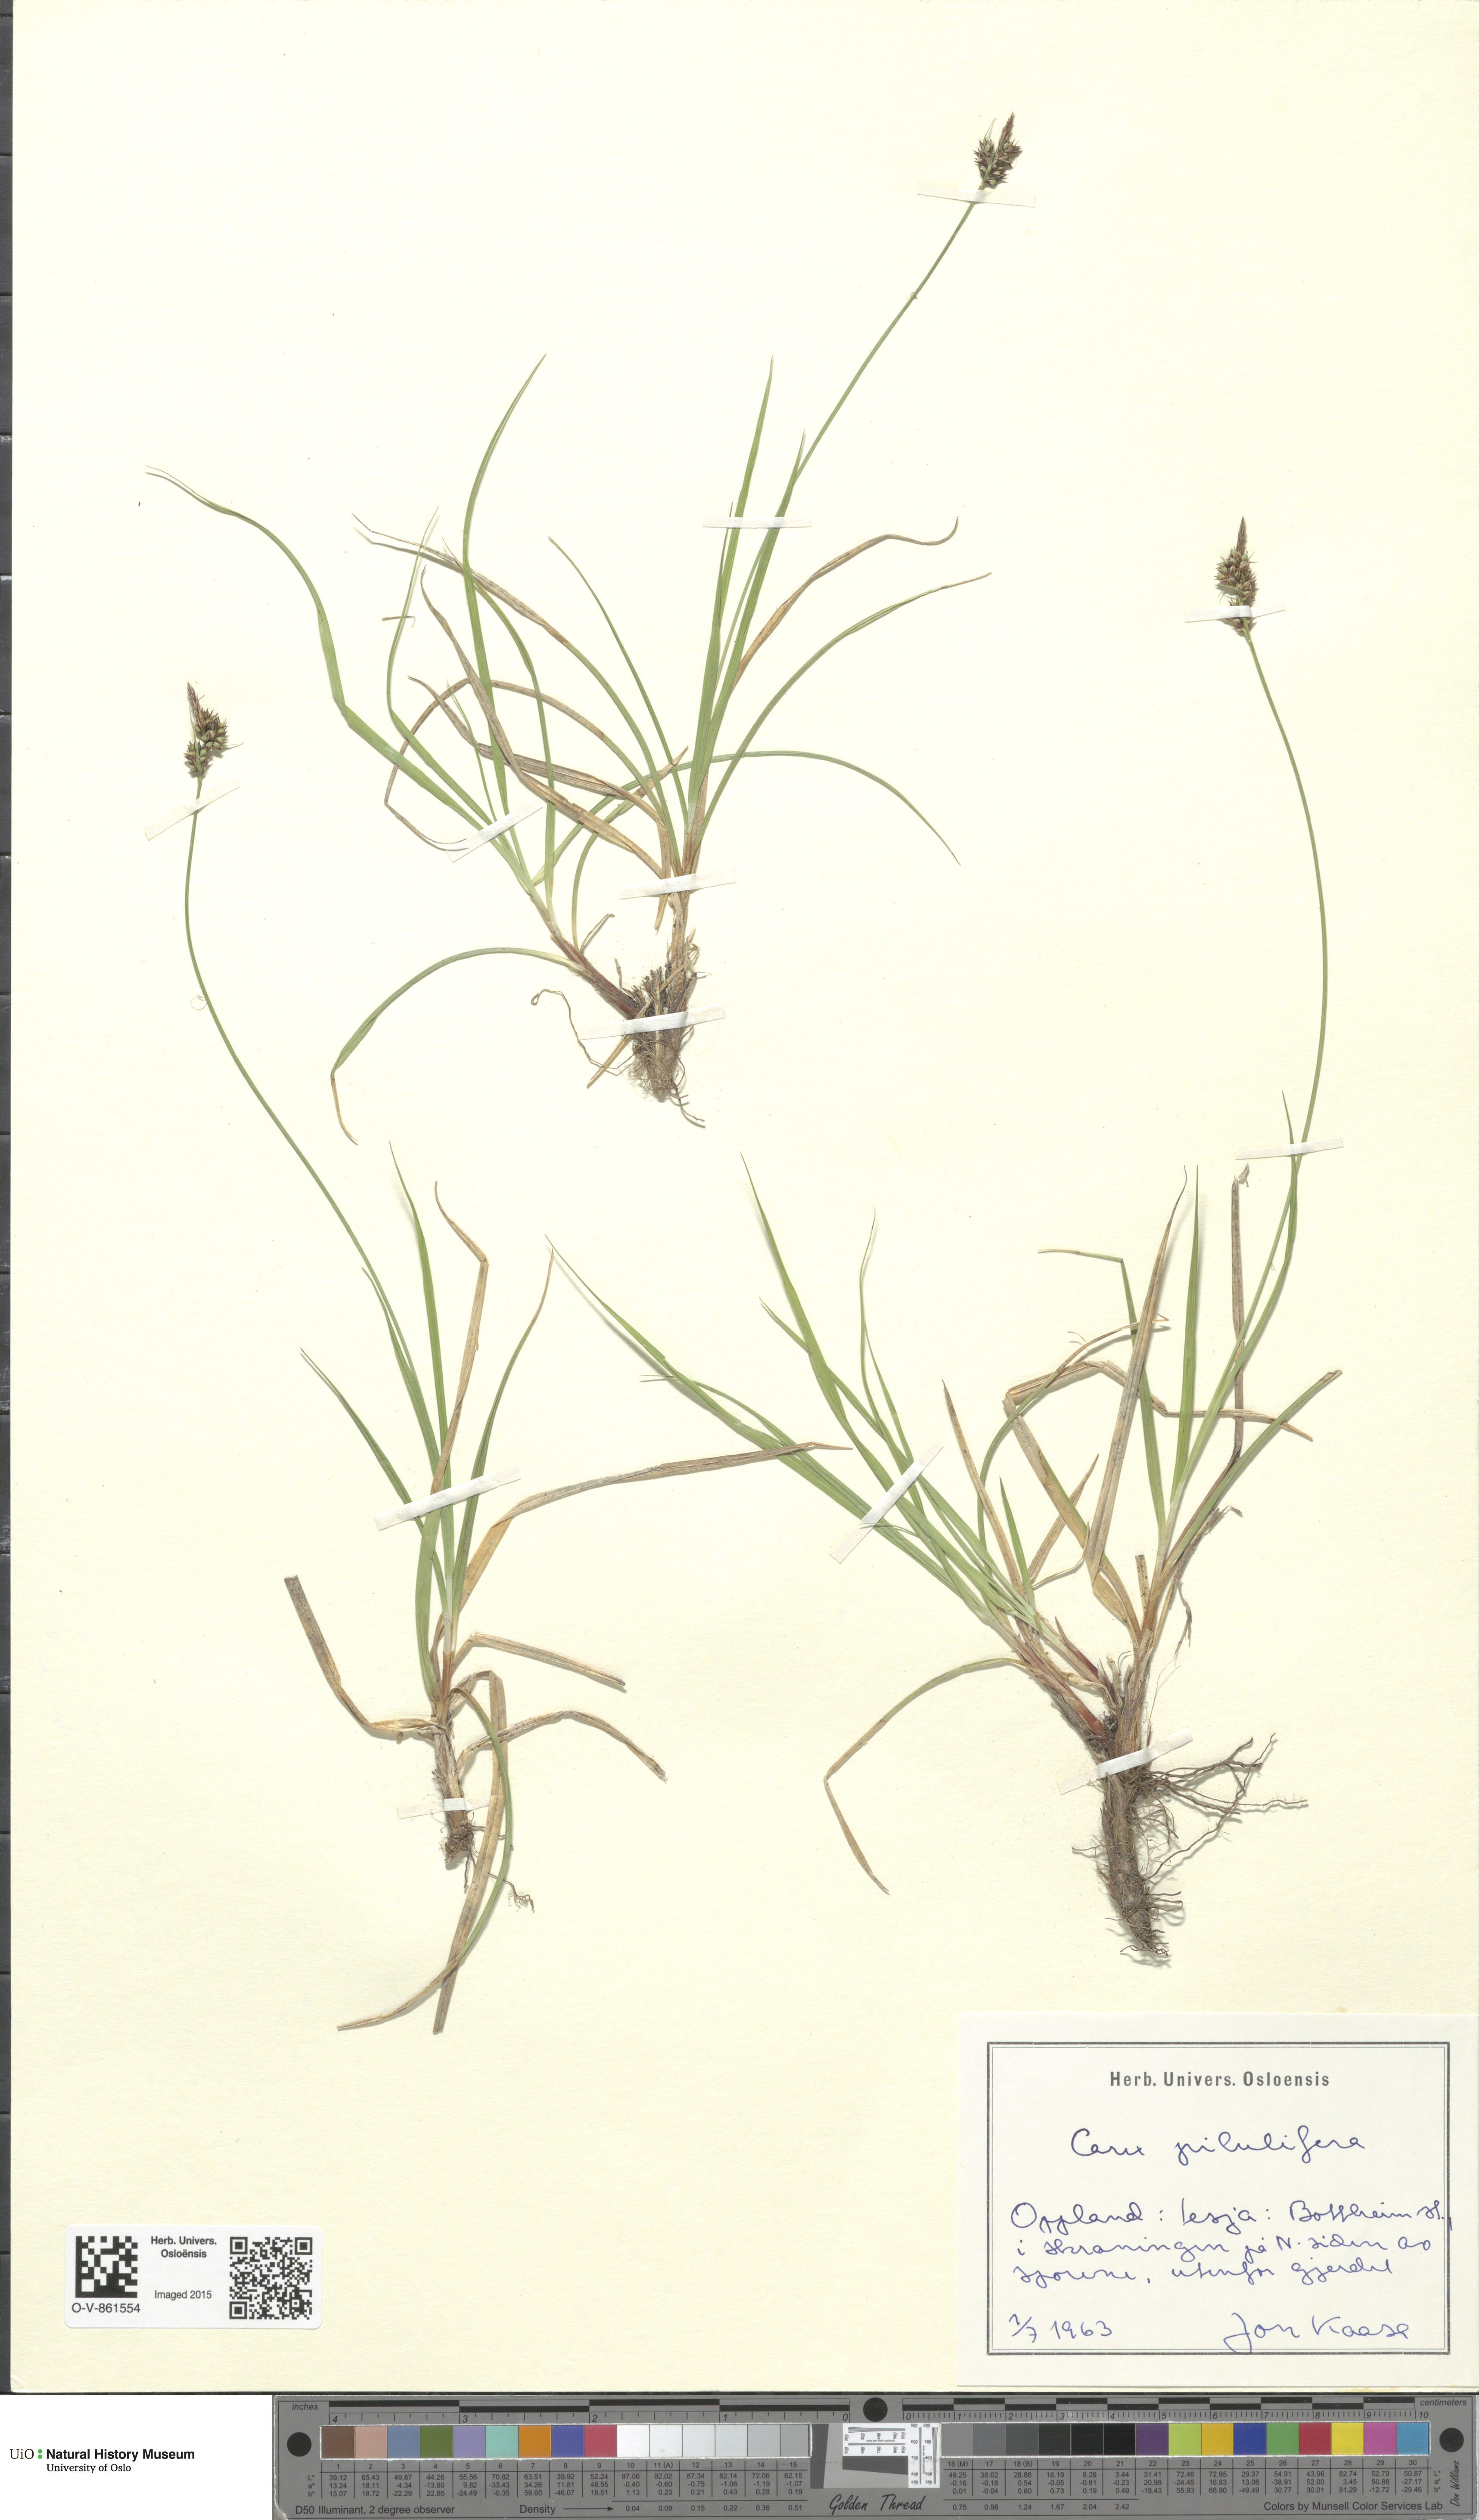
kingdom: Plantae
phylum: Tracheophyta
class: Liliopsida
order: Poales
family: Cyperaceae
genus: Carex
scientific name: Carex pilulifera
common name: Pill sedge
